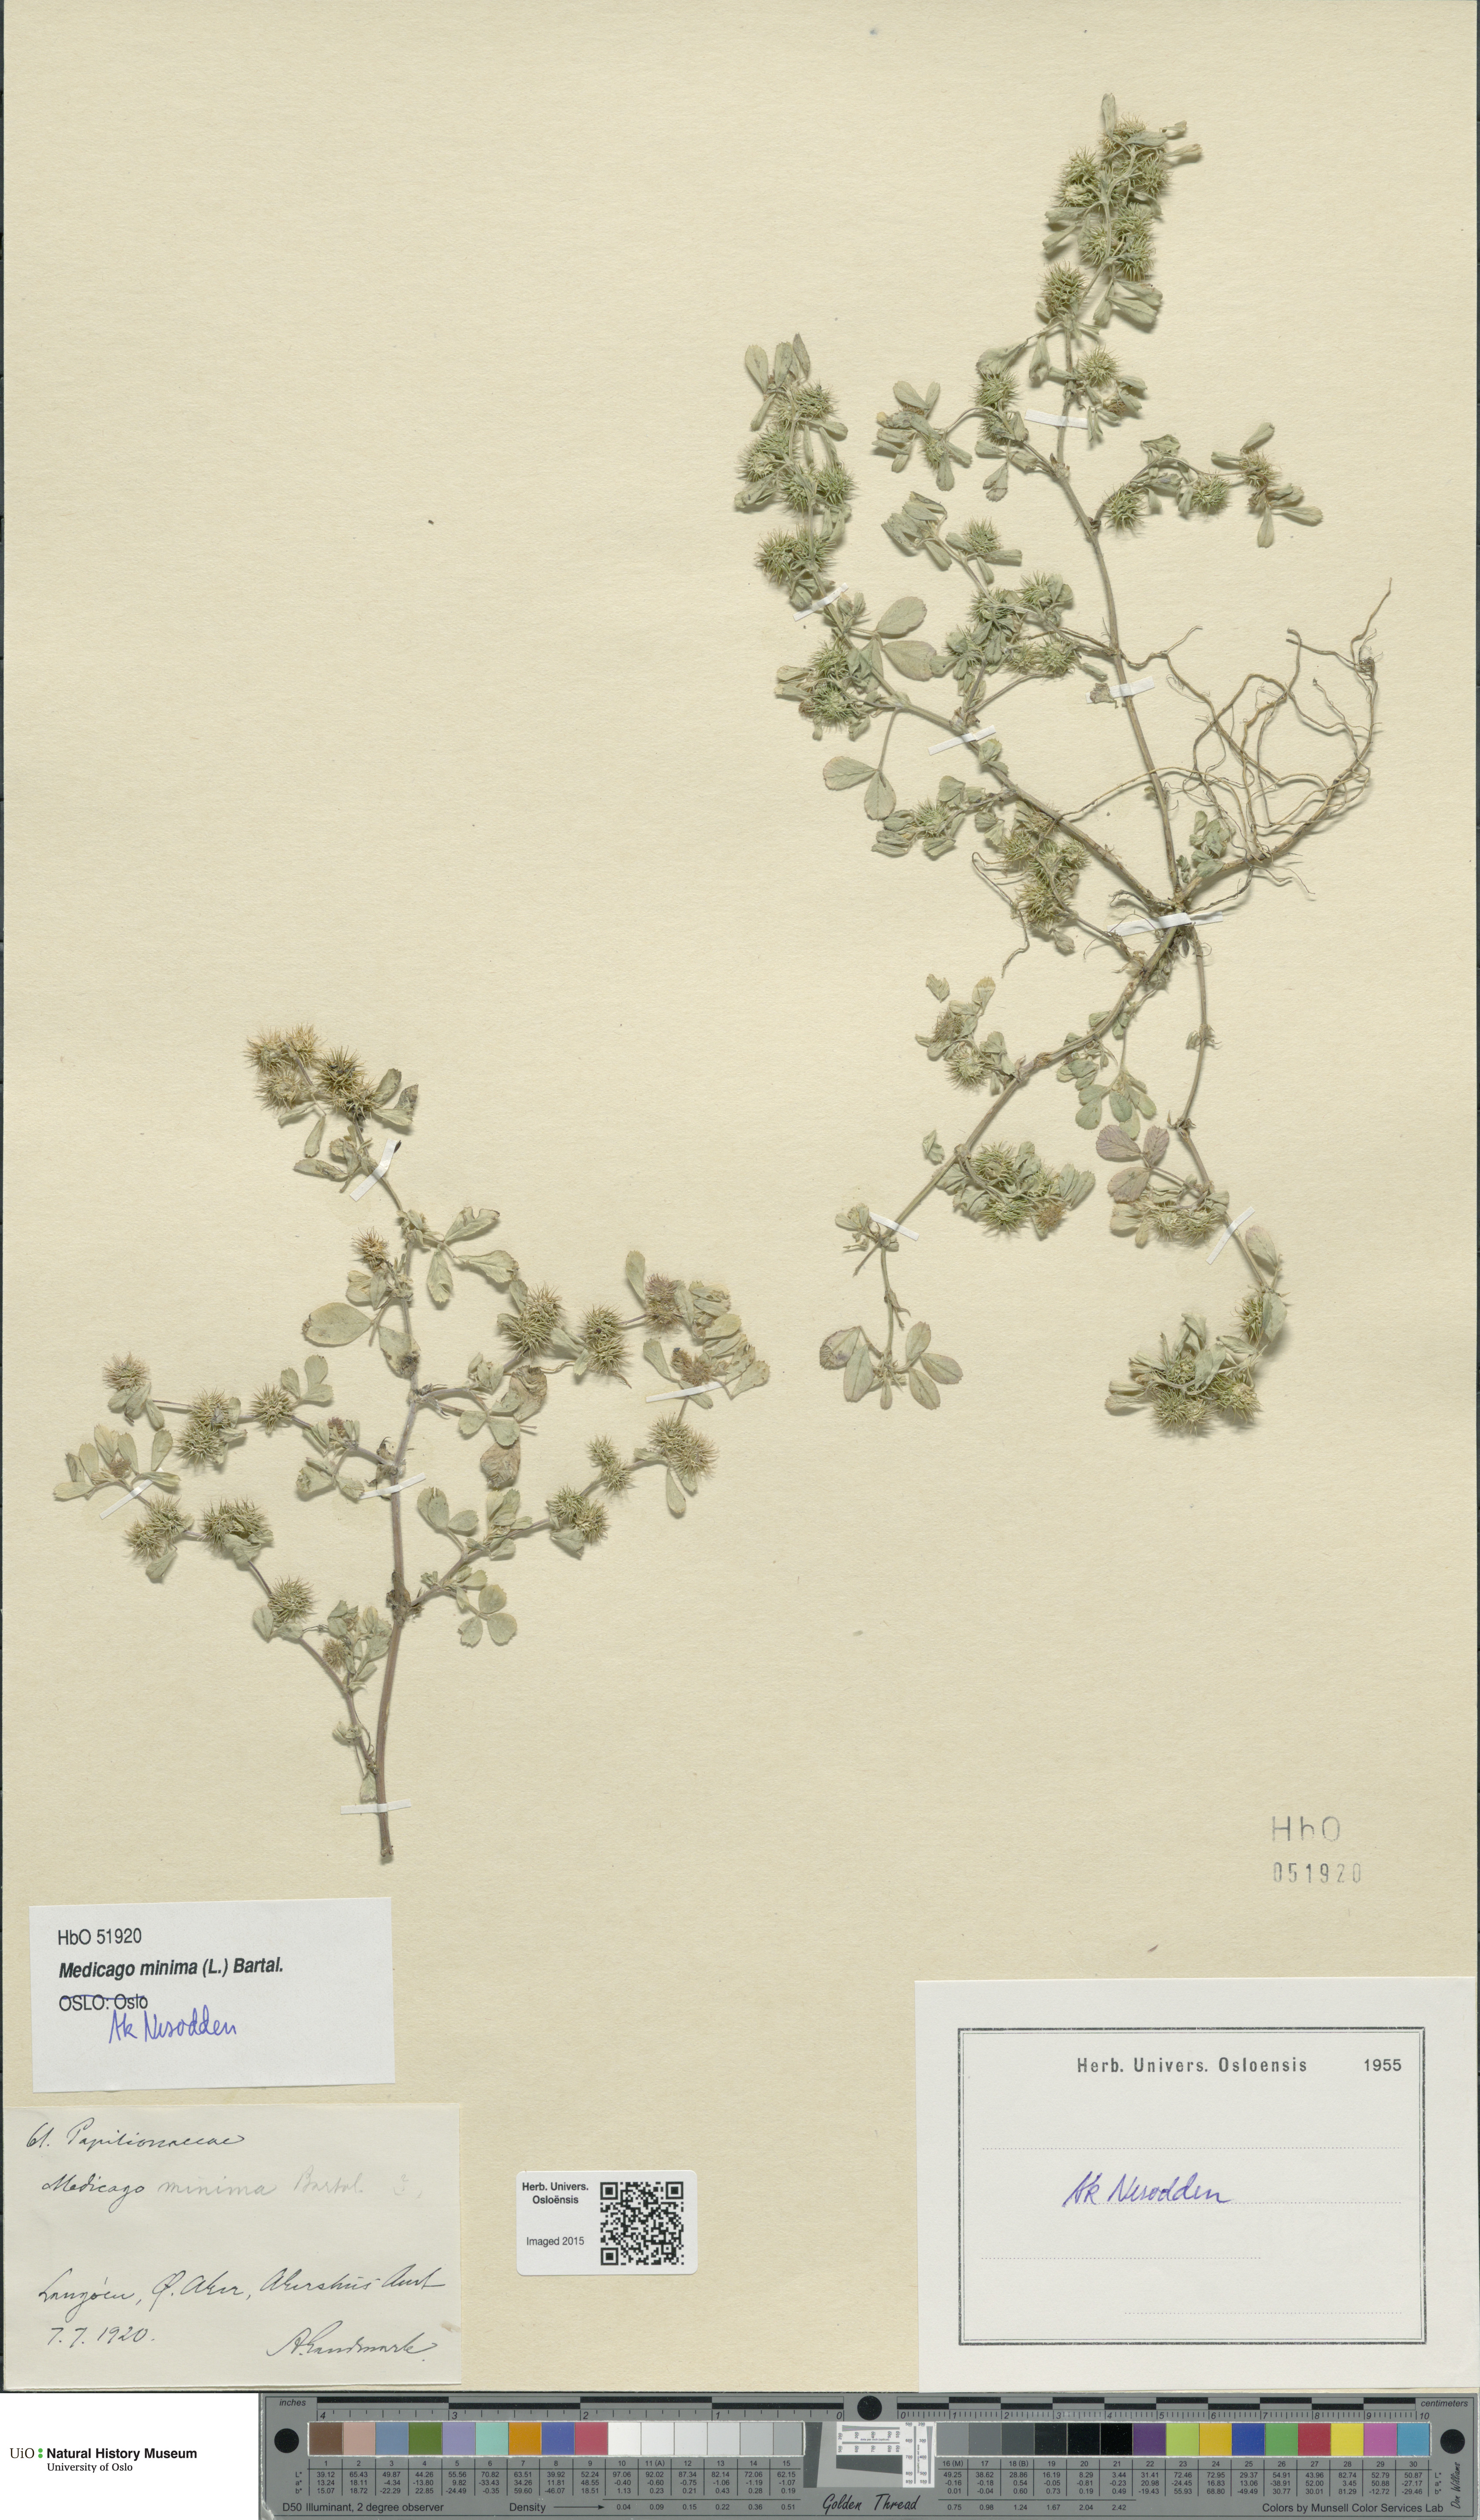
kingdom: Plantae
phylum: Tracheophyta
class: Magnoliopsida
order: Fabales
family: Fabaceae
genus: Medicago
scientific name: Medicago minima
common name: Little bur-clover
